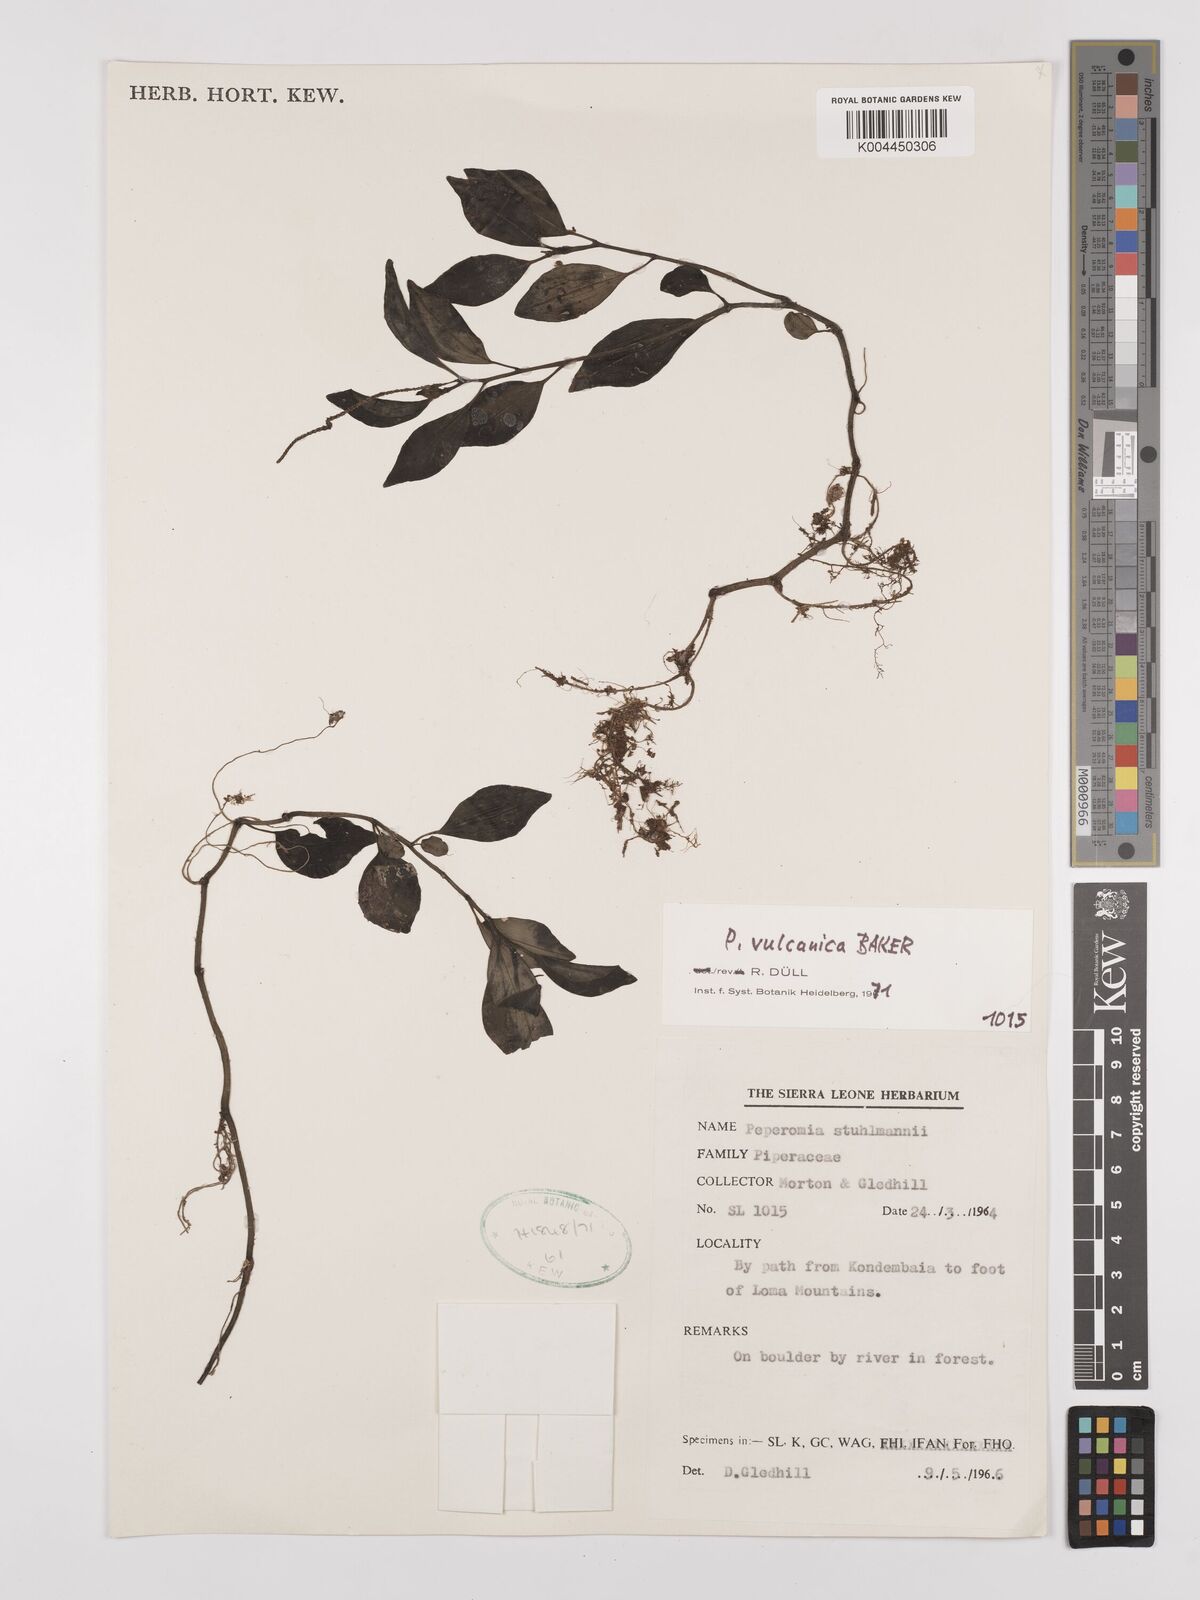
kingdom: Plantae
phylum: Tracheophyta
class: Magnoliopsida
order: Piperales
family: Piperaceae
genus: Peperomia
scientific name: Peperomia vulcanica
